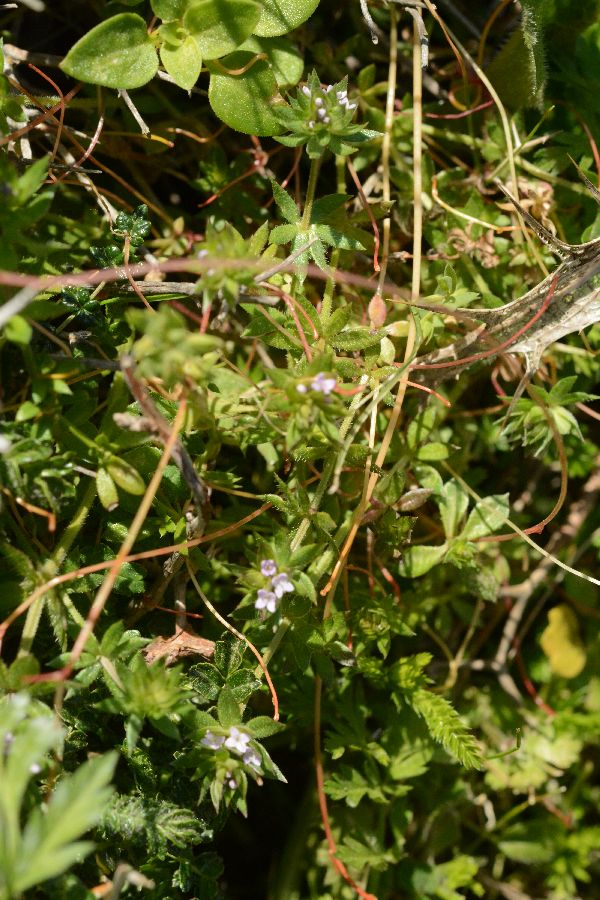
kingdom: Plantae
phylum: Tracheophyta
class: Magnoliopsida
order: Gentianales
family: Rubiaceae
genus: Asperula
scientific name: Asperula arvensis
